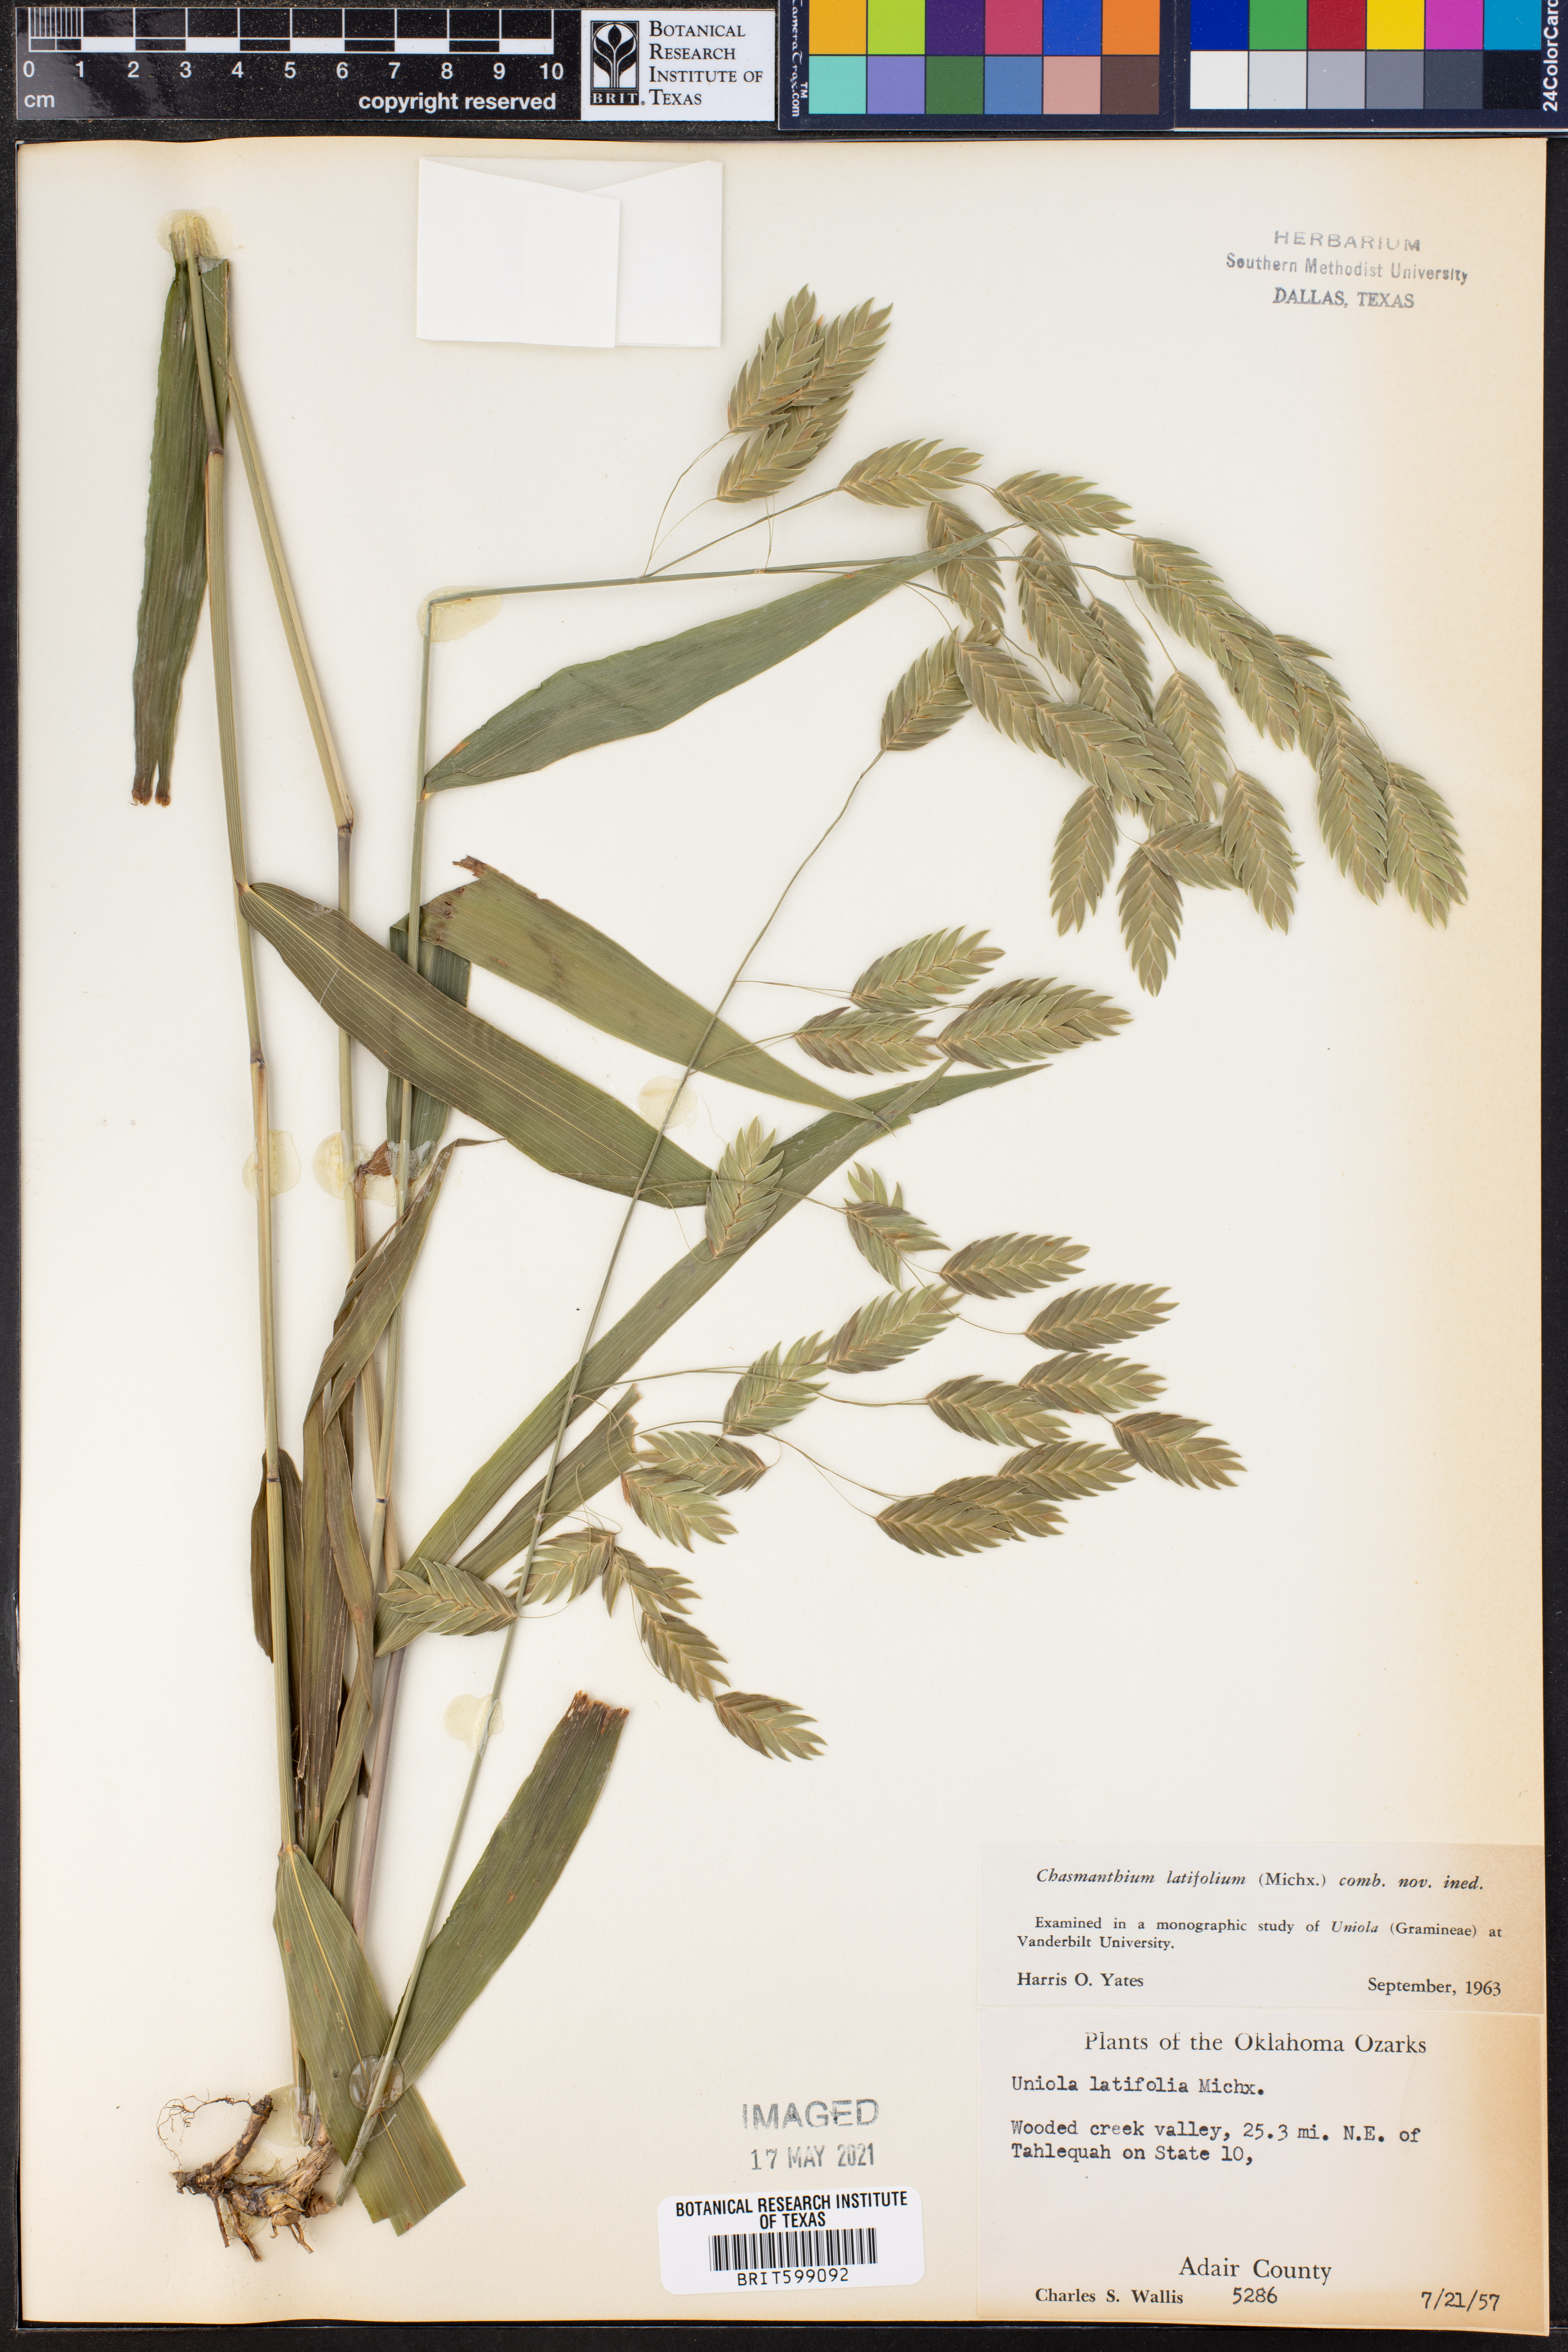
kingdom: Plantae
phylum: Tracheophyta
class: Liliopsida
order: Poales
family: Poaceae
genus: Chasmanthium
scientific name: Chasmanthium latifolium
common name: Broad-leaved chasmanthium
